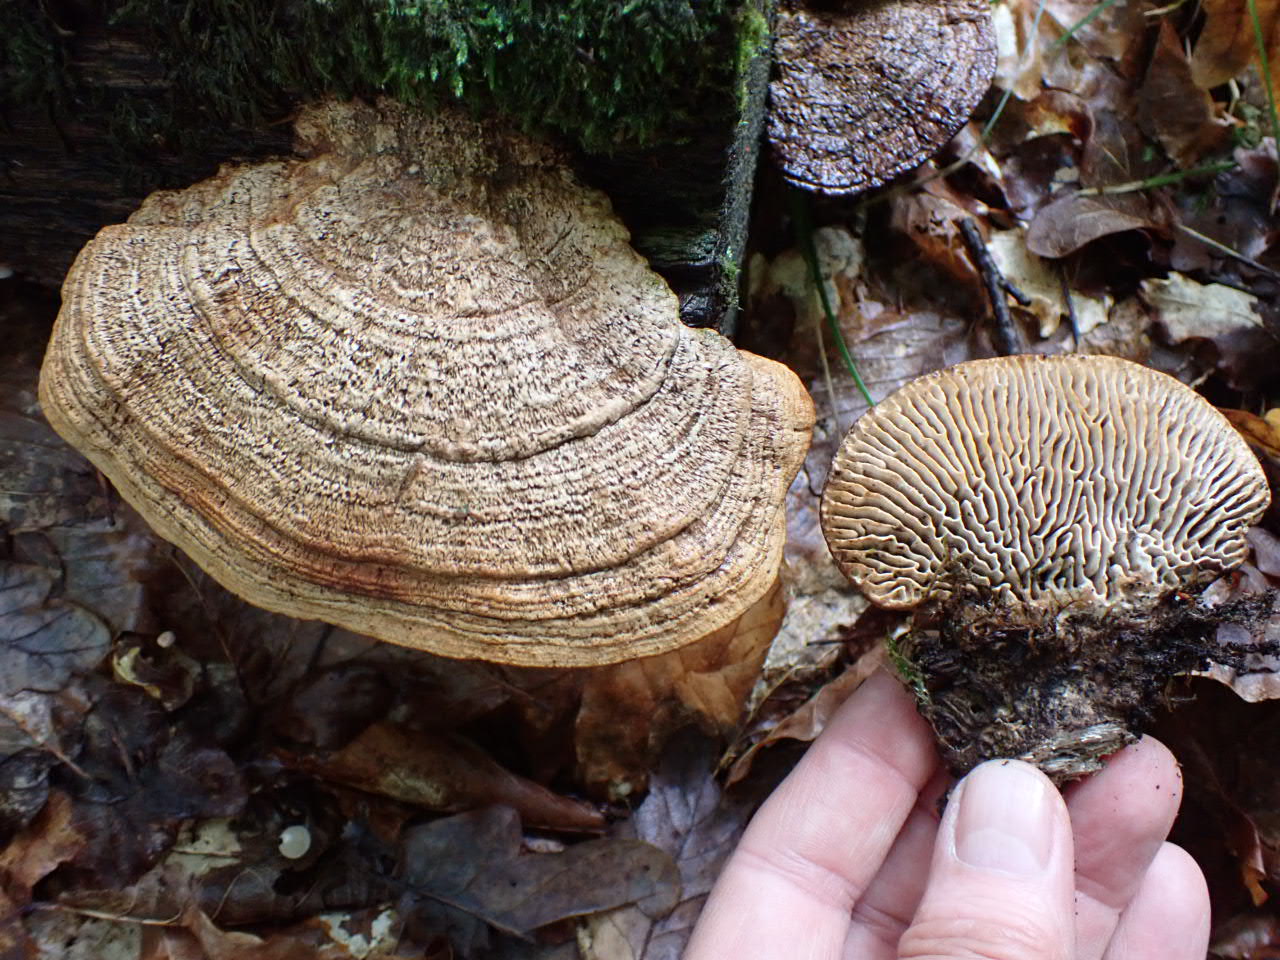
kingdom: Fungi
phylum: Basidiomycota
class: Agaricomycetes
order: Polyporales
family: Fomitopsidaceae
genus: Daedalea
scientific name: Daedalea quercina
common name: ege-labyrintsvamp
